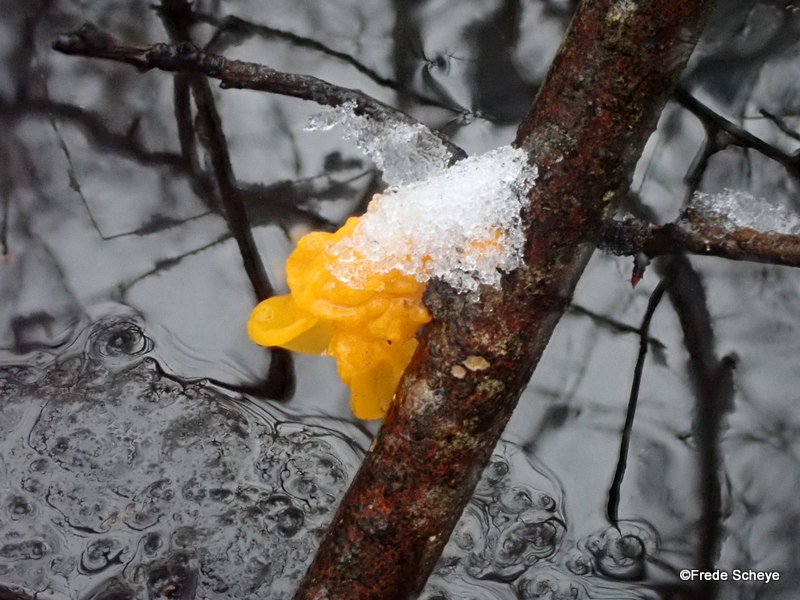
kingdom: Fungi
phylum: Basidiomycota
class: Tremellomycetes
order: Tremellales
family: Tremellaceae
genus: Tremella
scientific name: Tremella mesenterica
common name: gul bævresvamp
